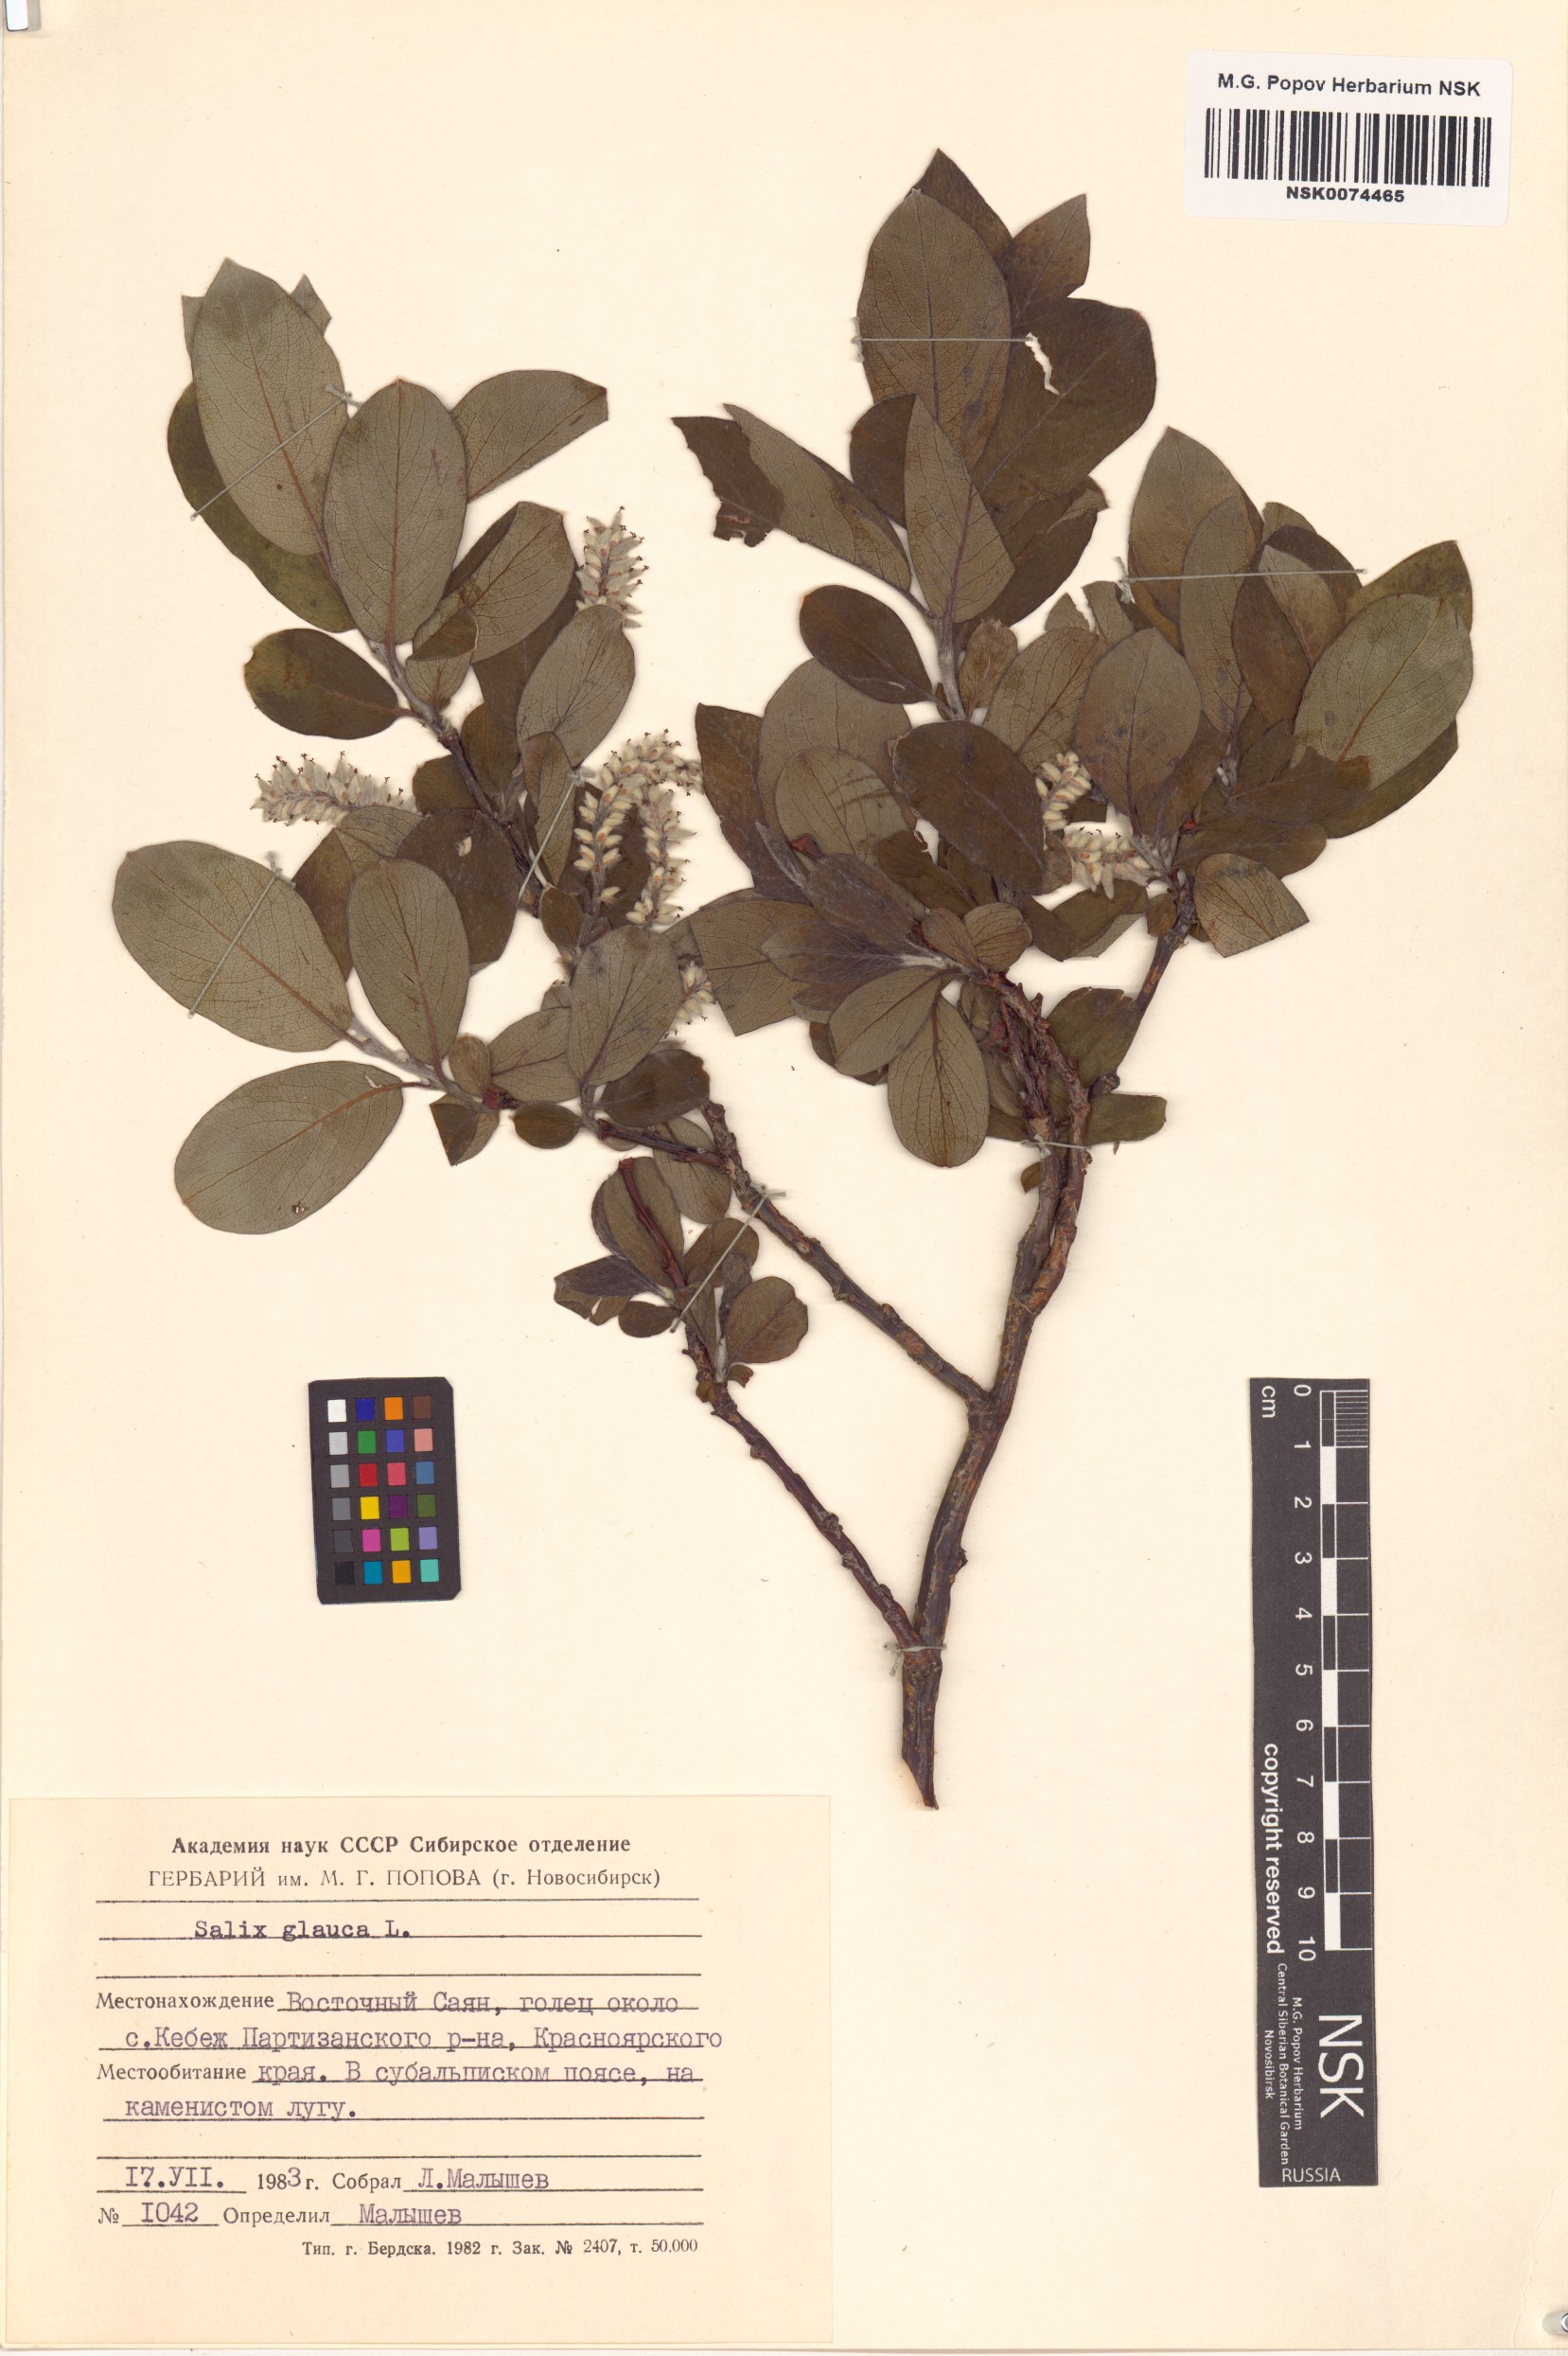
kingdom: Plantae
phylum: Tracheophyta
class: Magnoliopsida
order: Malpighiales
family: Salicaceae
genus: Salix
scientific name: Salix glauca
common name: Glaucous willow
